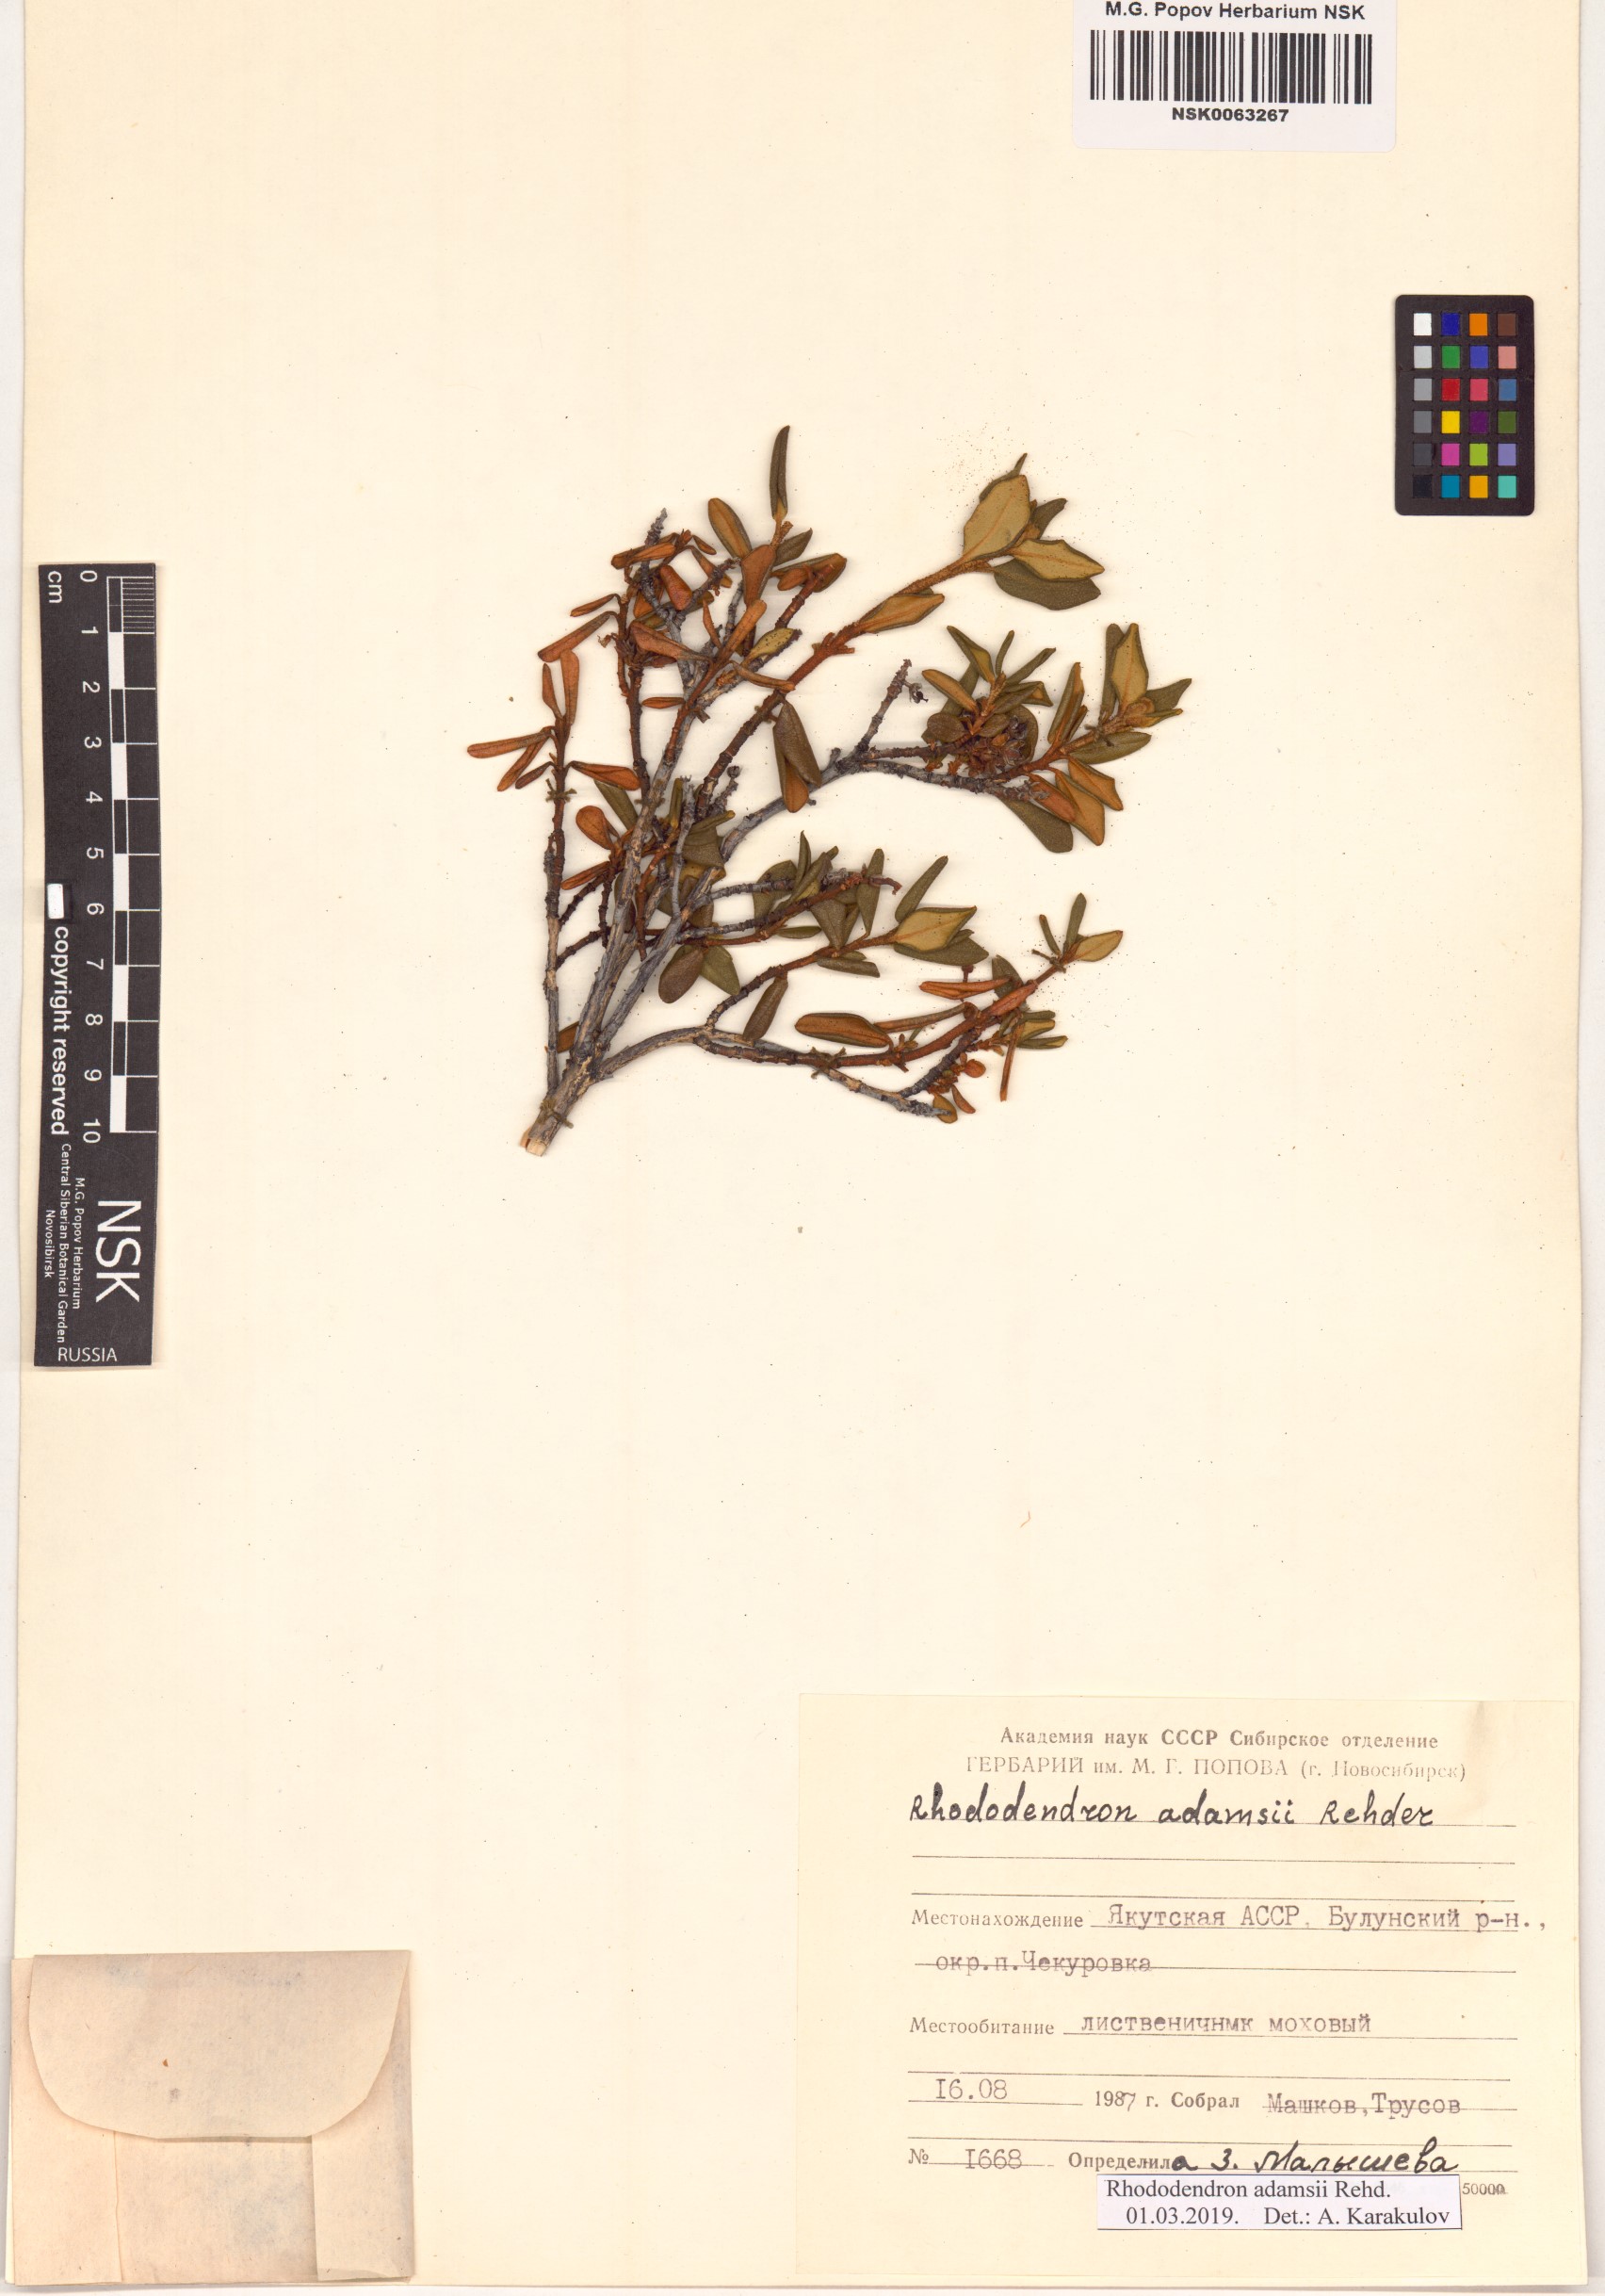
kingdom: Plantae
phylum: Tracheophyta
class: Magnoliopsida
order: Ericales
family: Ericaceae
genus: Rhododendron
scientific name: Rhododendron adamsii
